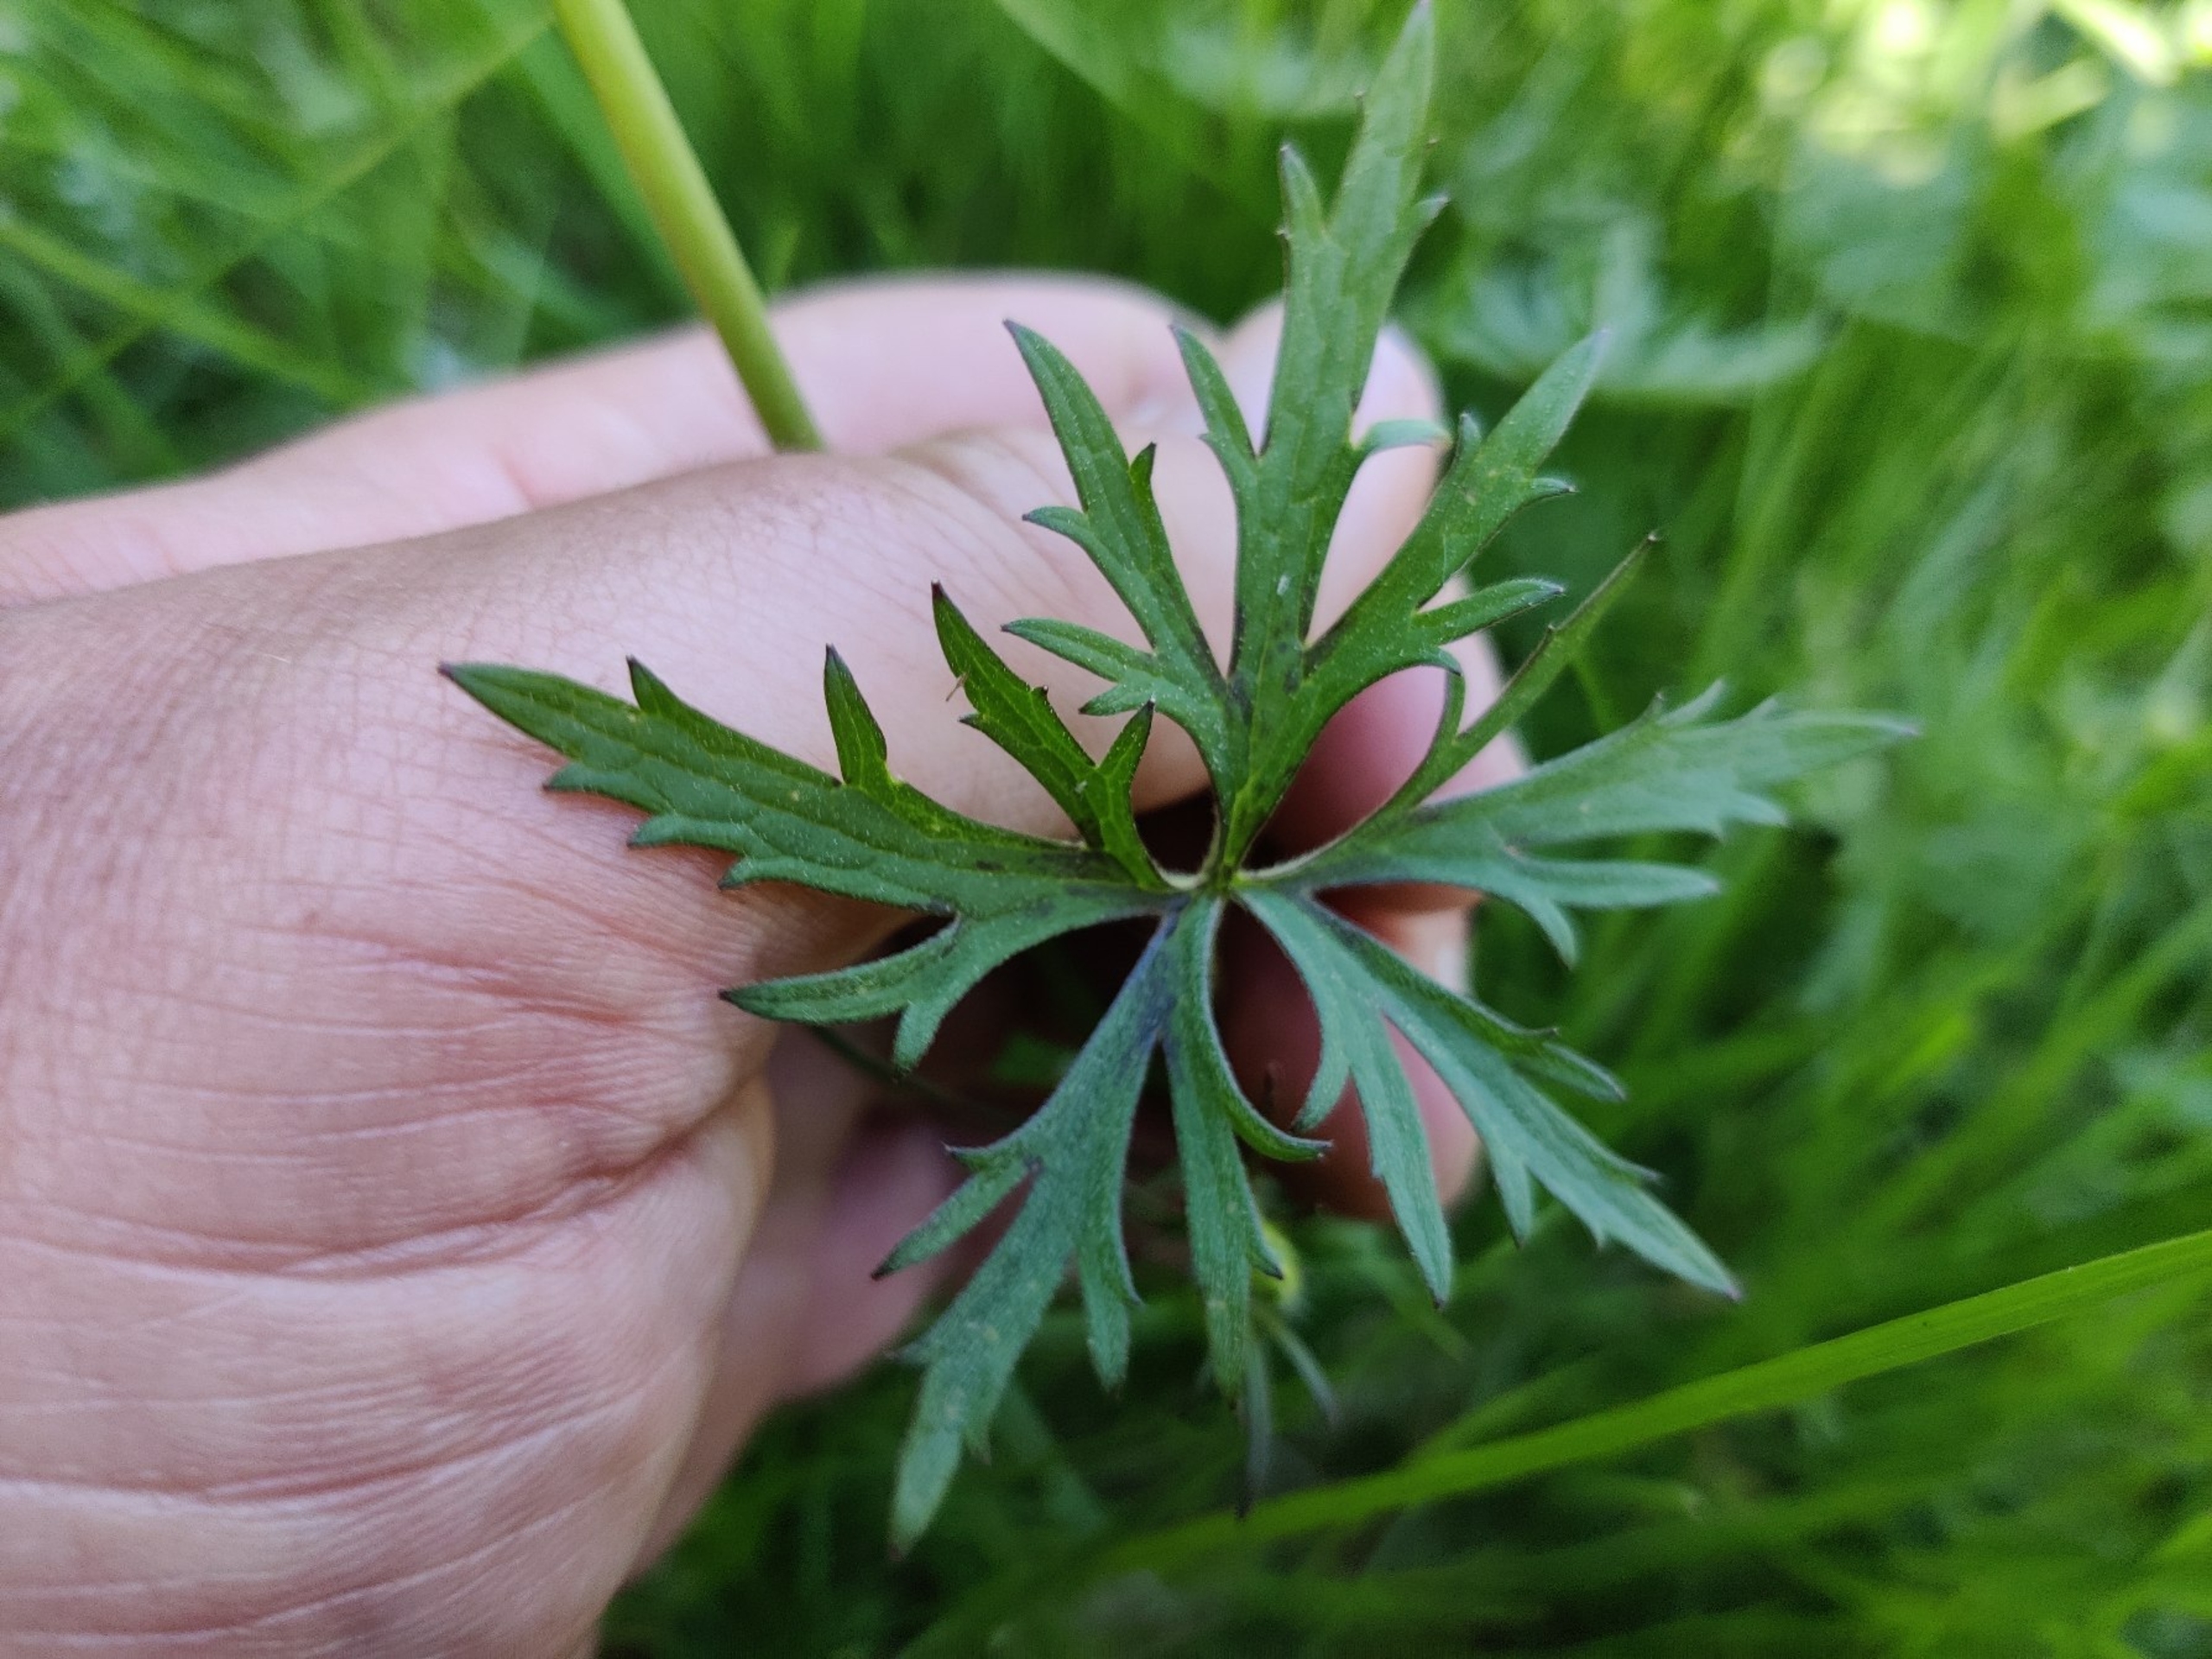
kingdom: Plantae
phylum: Tracheophyta
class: Magnoliopsida
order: Ranunculales
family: Ranunculaceae
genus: Ranunculus
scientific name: Ranunculus acris
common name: Bidende ranunkel
